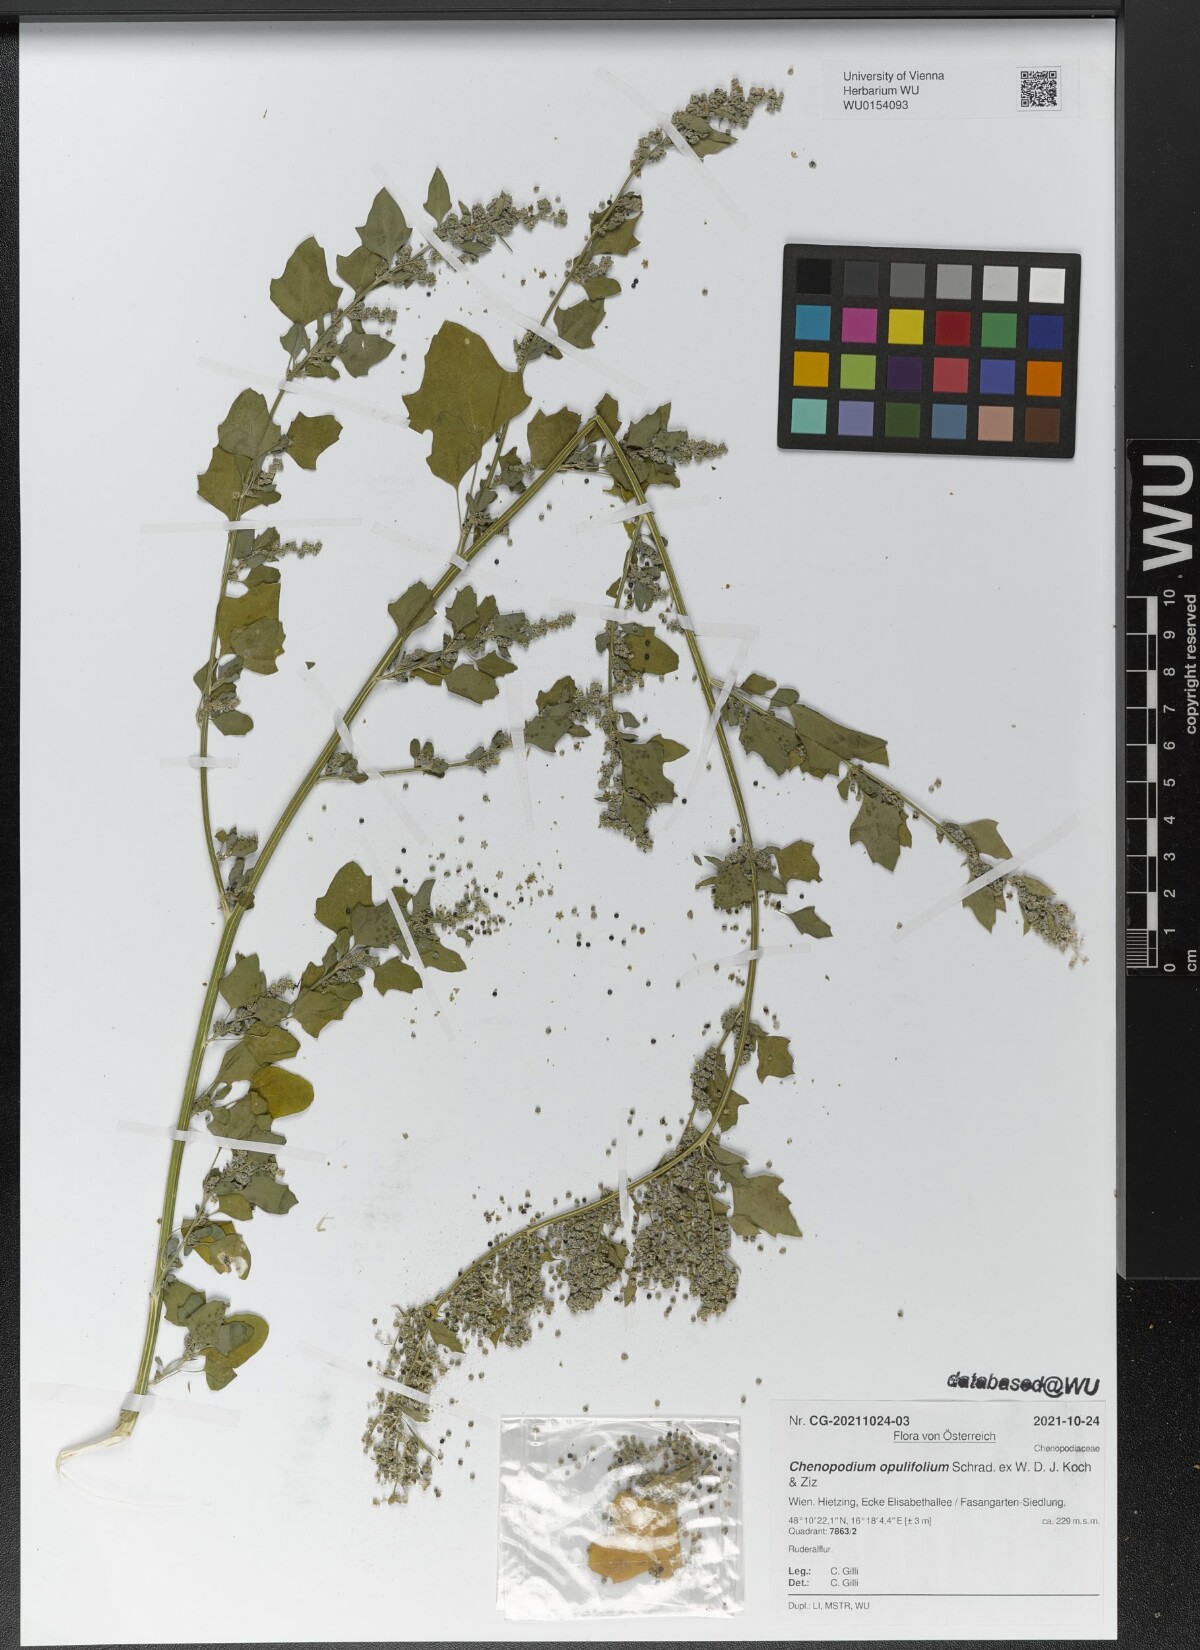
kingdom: Plantae
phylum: Tracheophyta
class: Magnoliopsida
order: Caryophyllales
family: Amaranthaceae
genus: Chenopodium
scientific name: Chenopodium opulifolium
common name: Grey goosefoot
